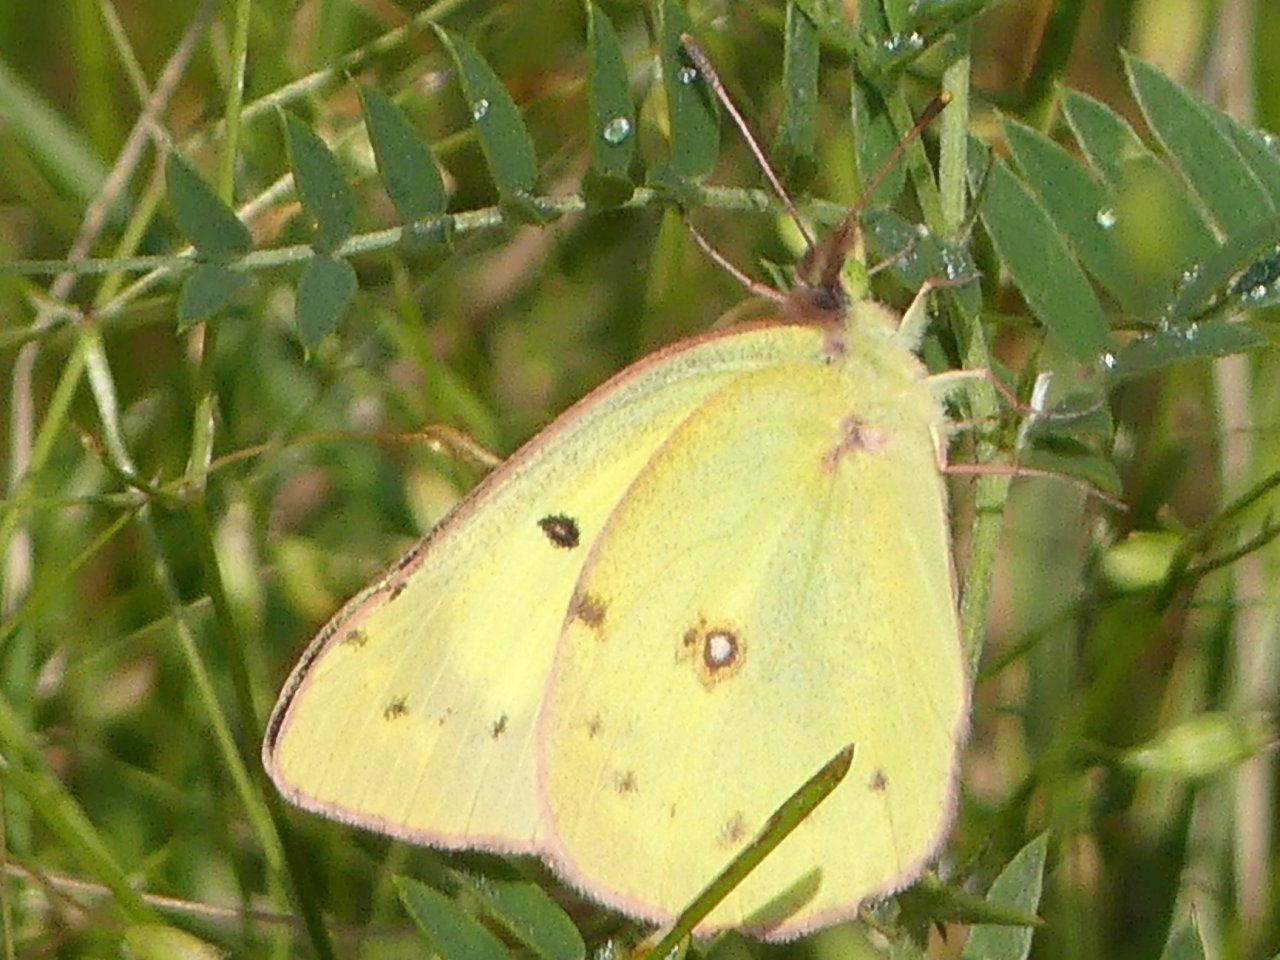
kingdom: Animalia
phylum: Arthropoda
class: Insecta
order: Lepidoptera
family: Pieridae
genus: Colias
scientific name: Colias philodice
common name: Clouded Sulphur
